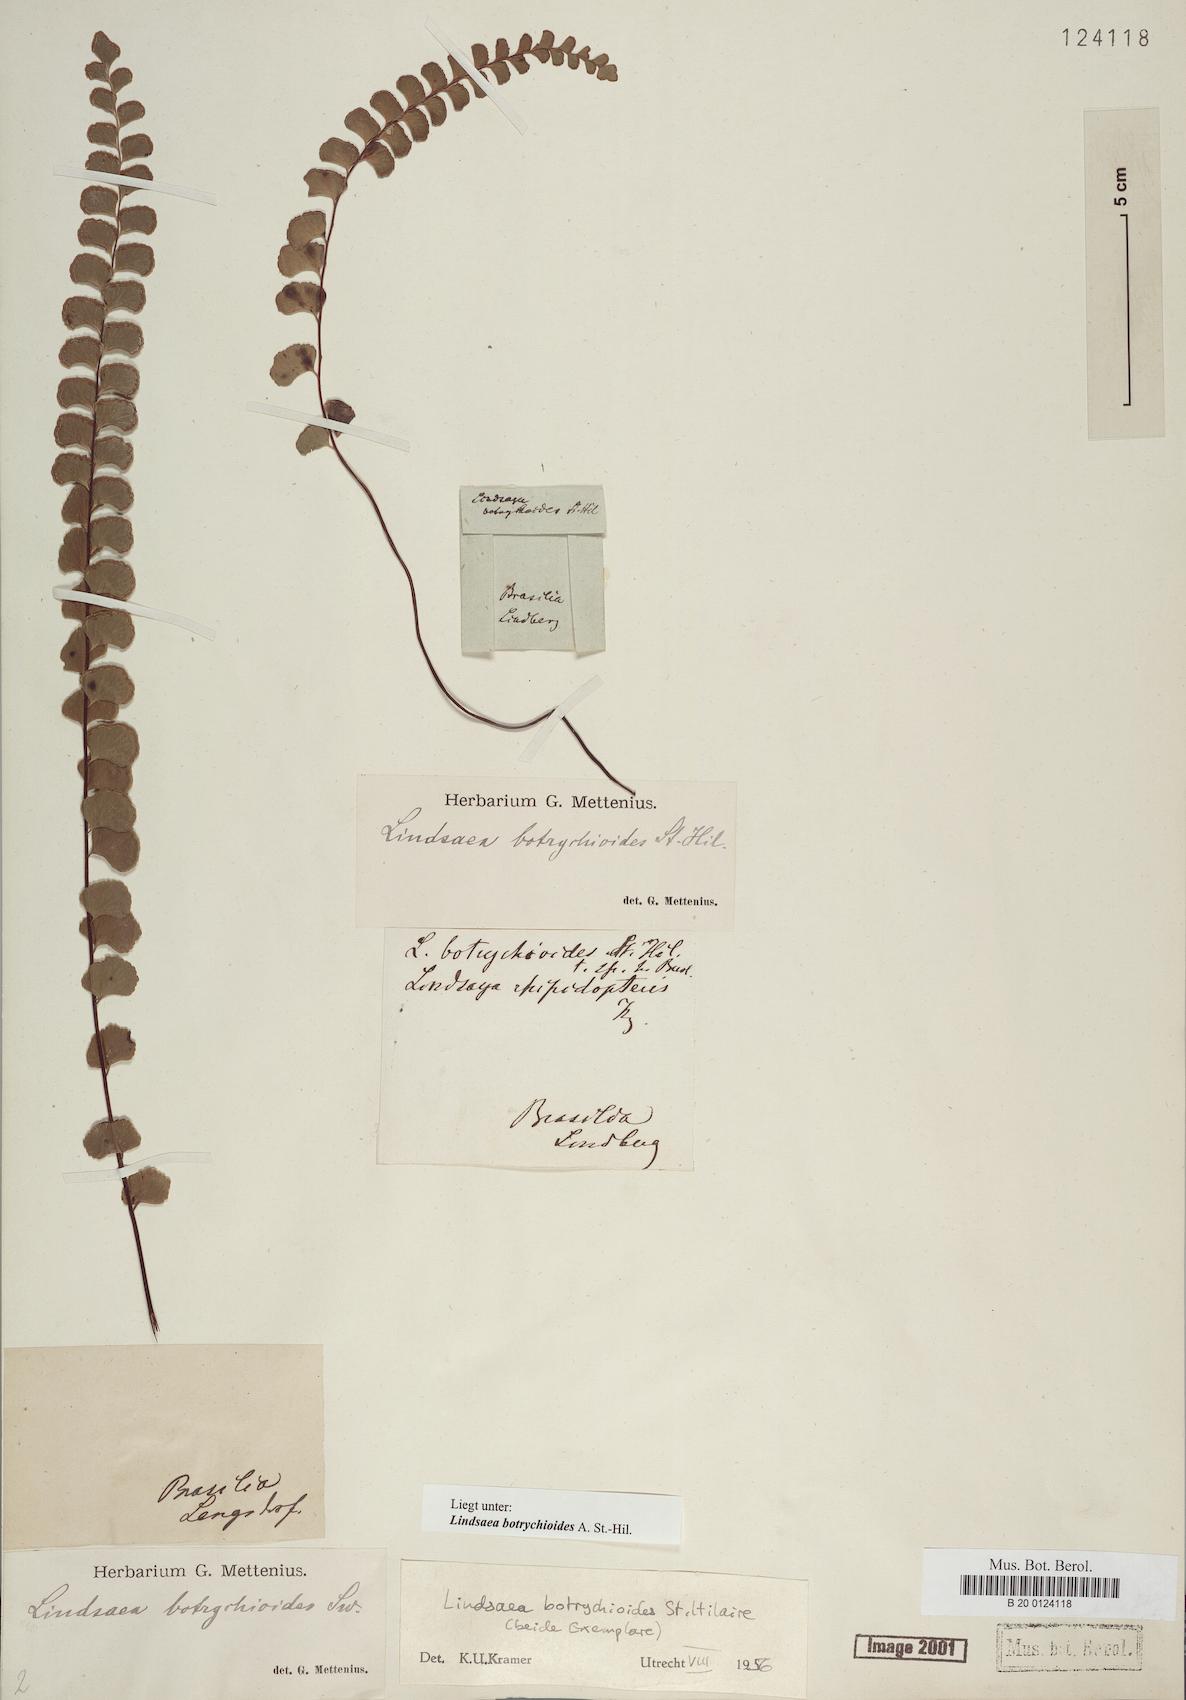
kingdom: Plantae
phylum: Tracheophyta
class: Polypodiopsida
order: Polypodiales
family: Lindsaeaceae
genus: Lindsaea
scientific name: Lindsaea botrychioides
